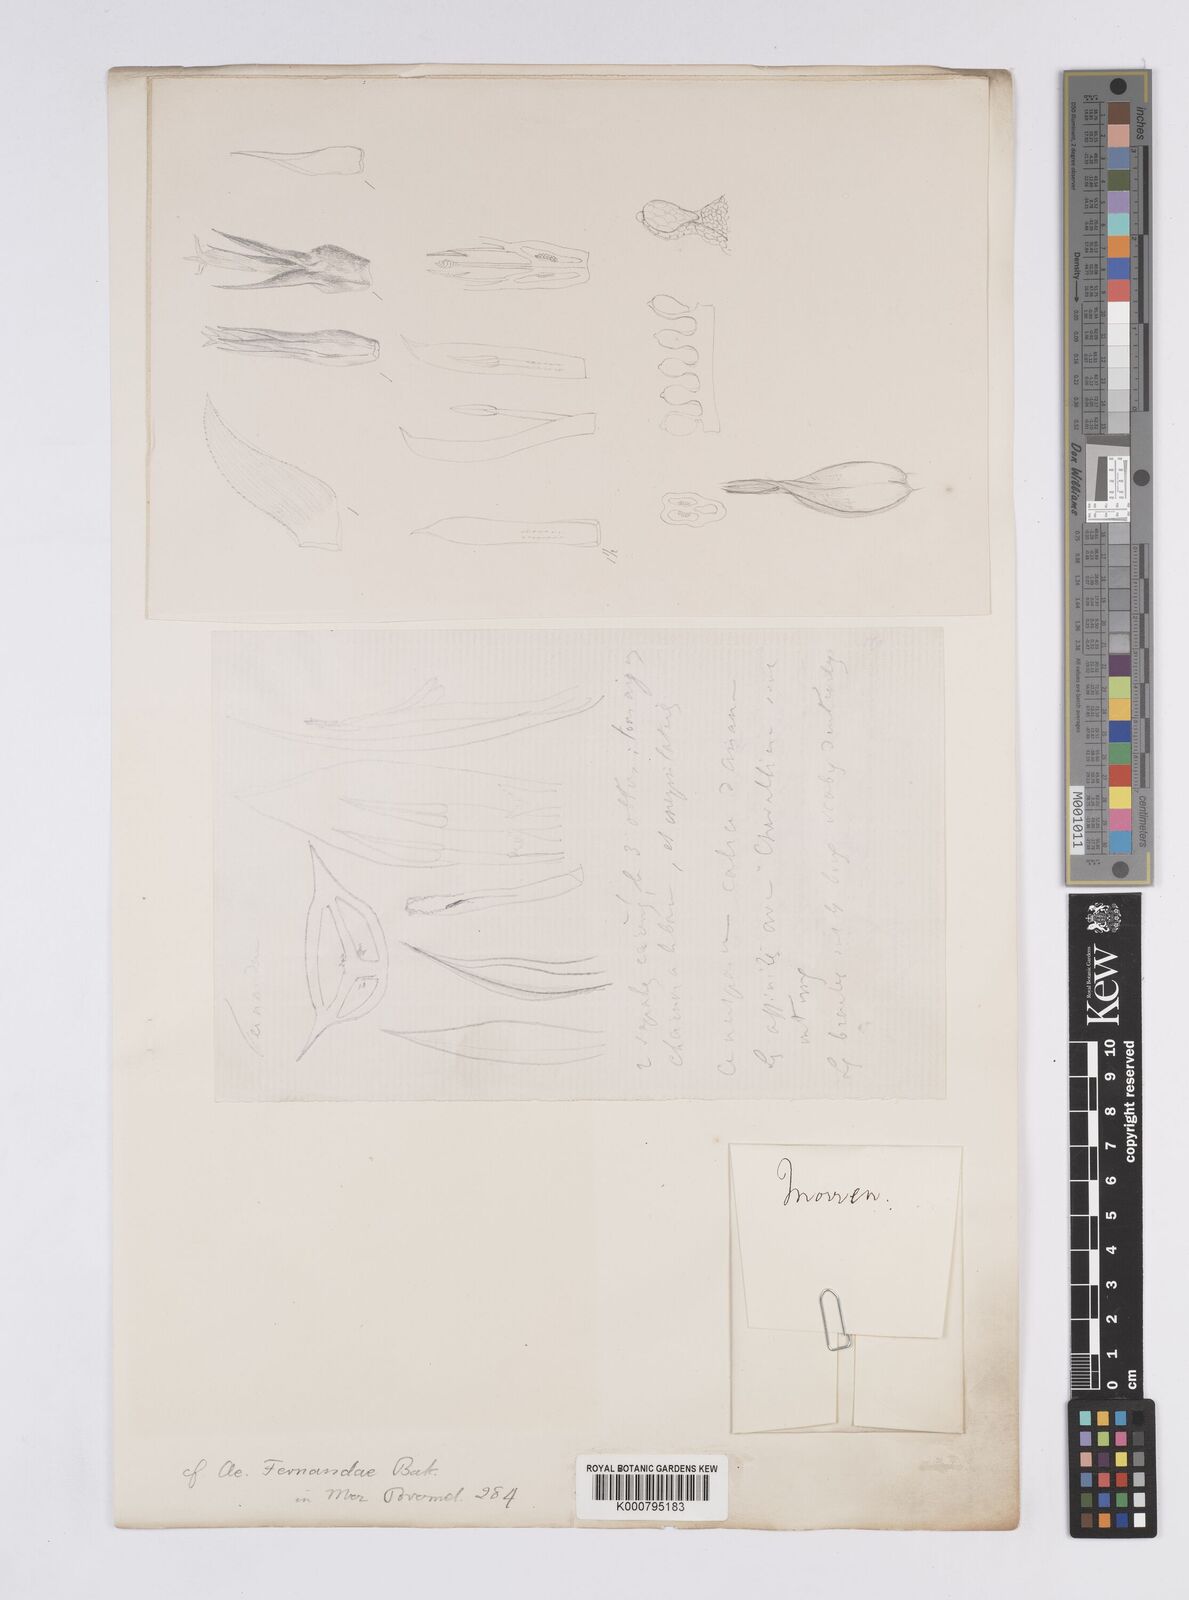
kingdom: Plantae
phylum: Tracheophyta
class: Liliopsida
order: Poales
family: Bromeliaceae
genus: Aechmea
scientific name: Aechmea fernandae
